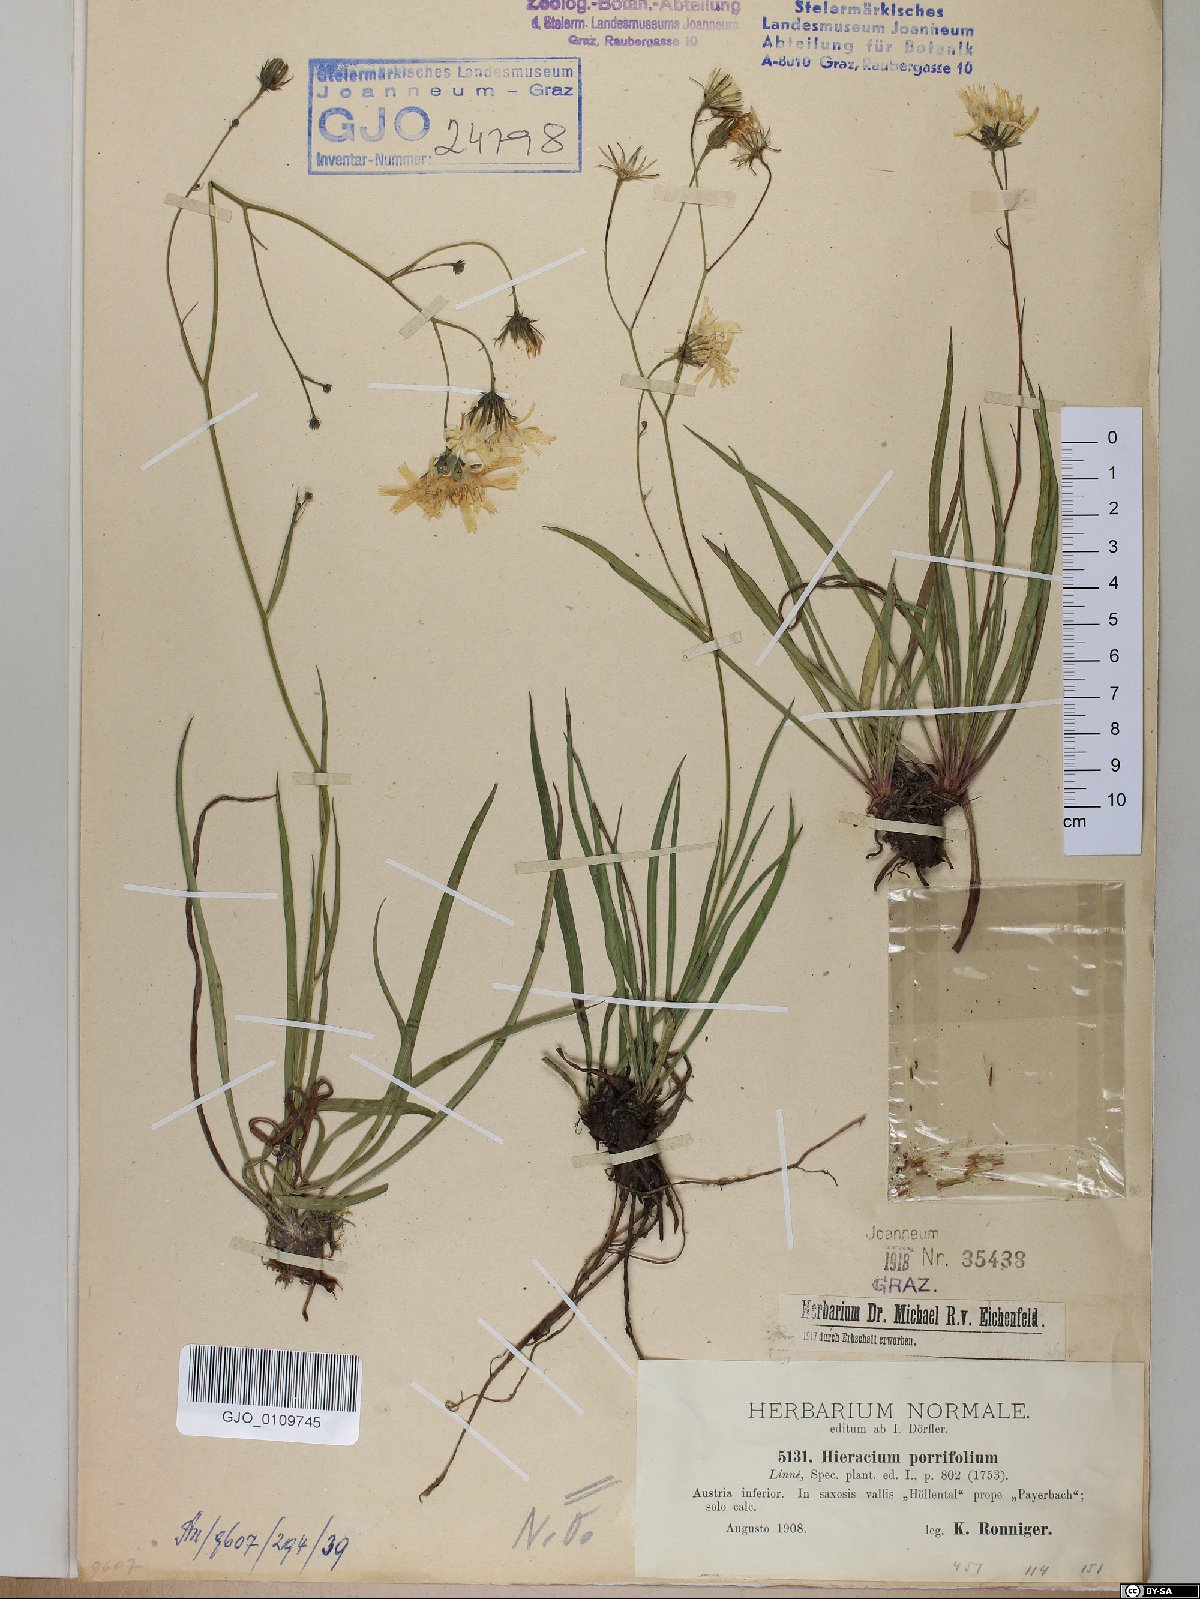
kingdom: Plantae
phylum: Tracheophyta
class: Magnoliopsida
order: Asterales
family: Asteraceae
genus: Hieracium
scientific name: Hieracium porrifolium
